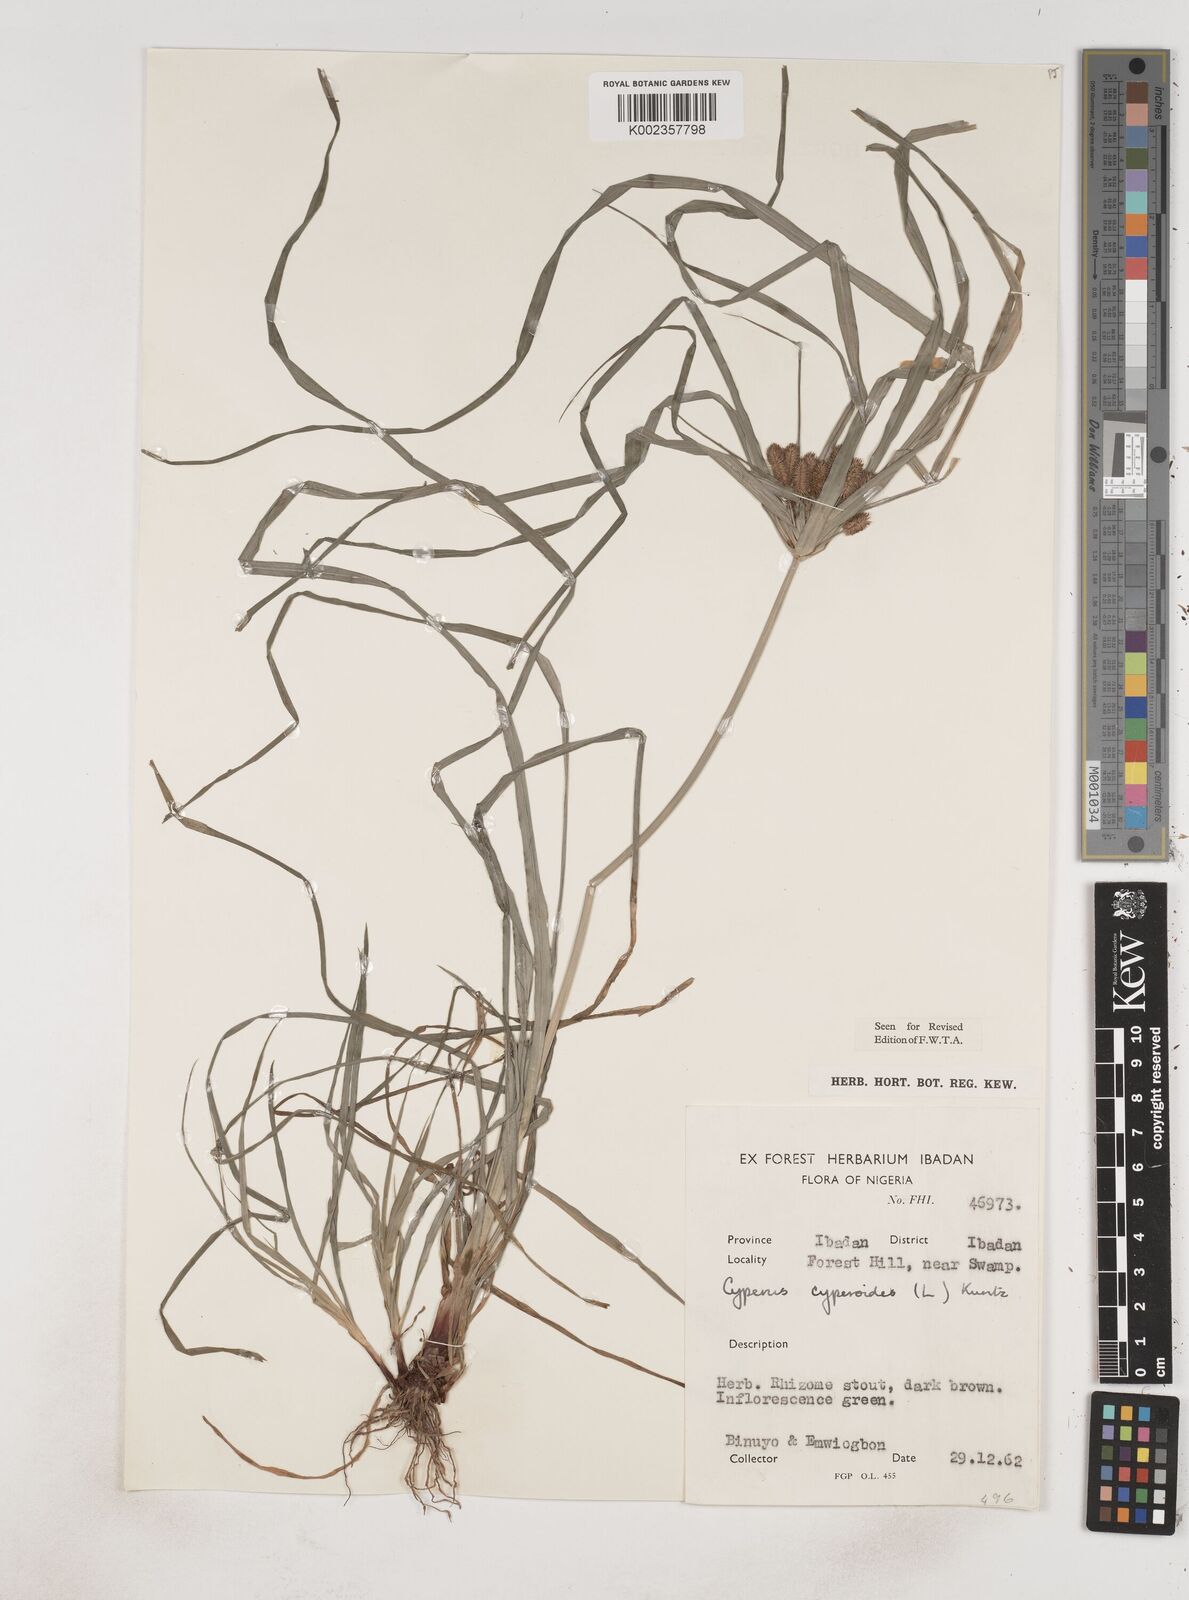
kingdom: Plantae
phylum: Tracheophyta
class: Liliopsida
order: Poales
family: Cyperaceae
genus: Cyperus
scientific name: Cyperus sublimis
